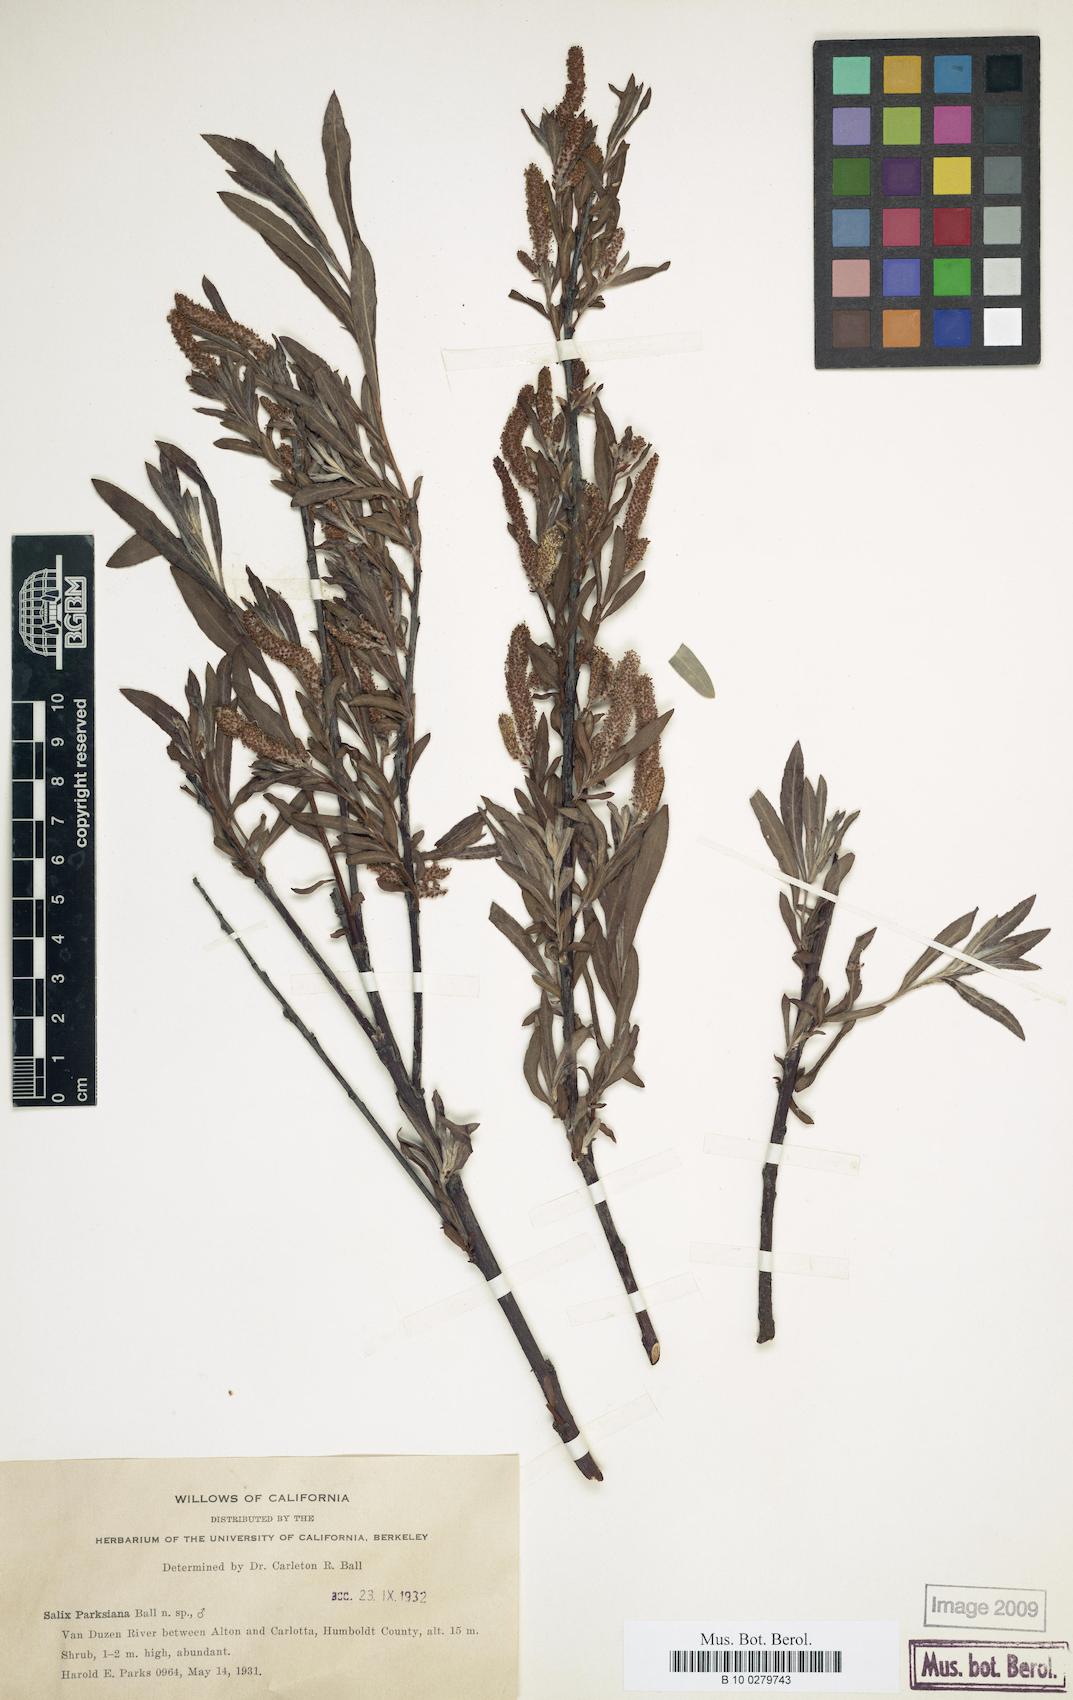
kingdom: Plantae
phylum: Tracheophyta
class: Magnoliopsida
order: Malpighiales
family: Salicaceae
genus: Salix
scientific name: Salix melanopsis
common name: Dusky willow
